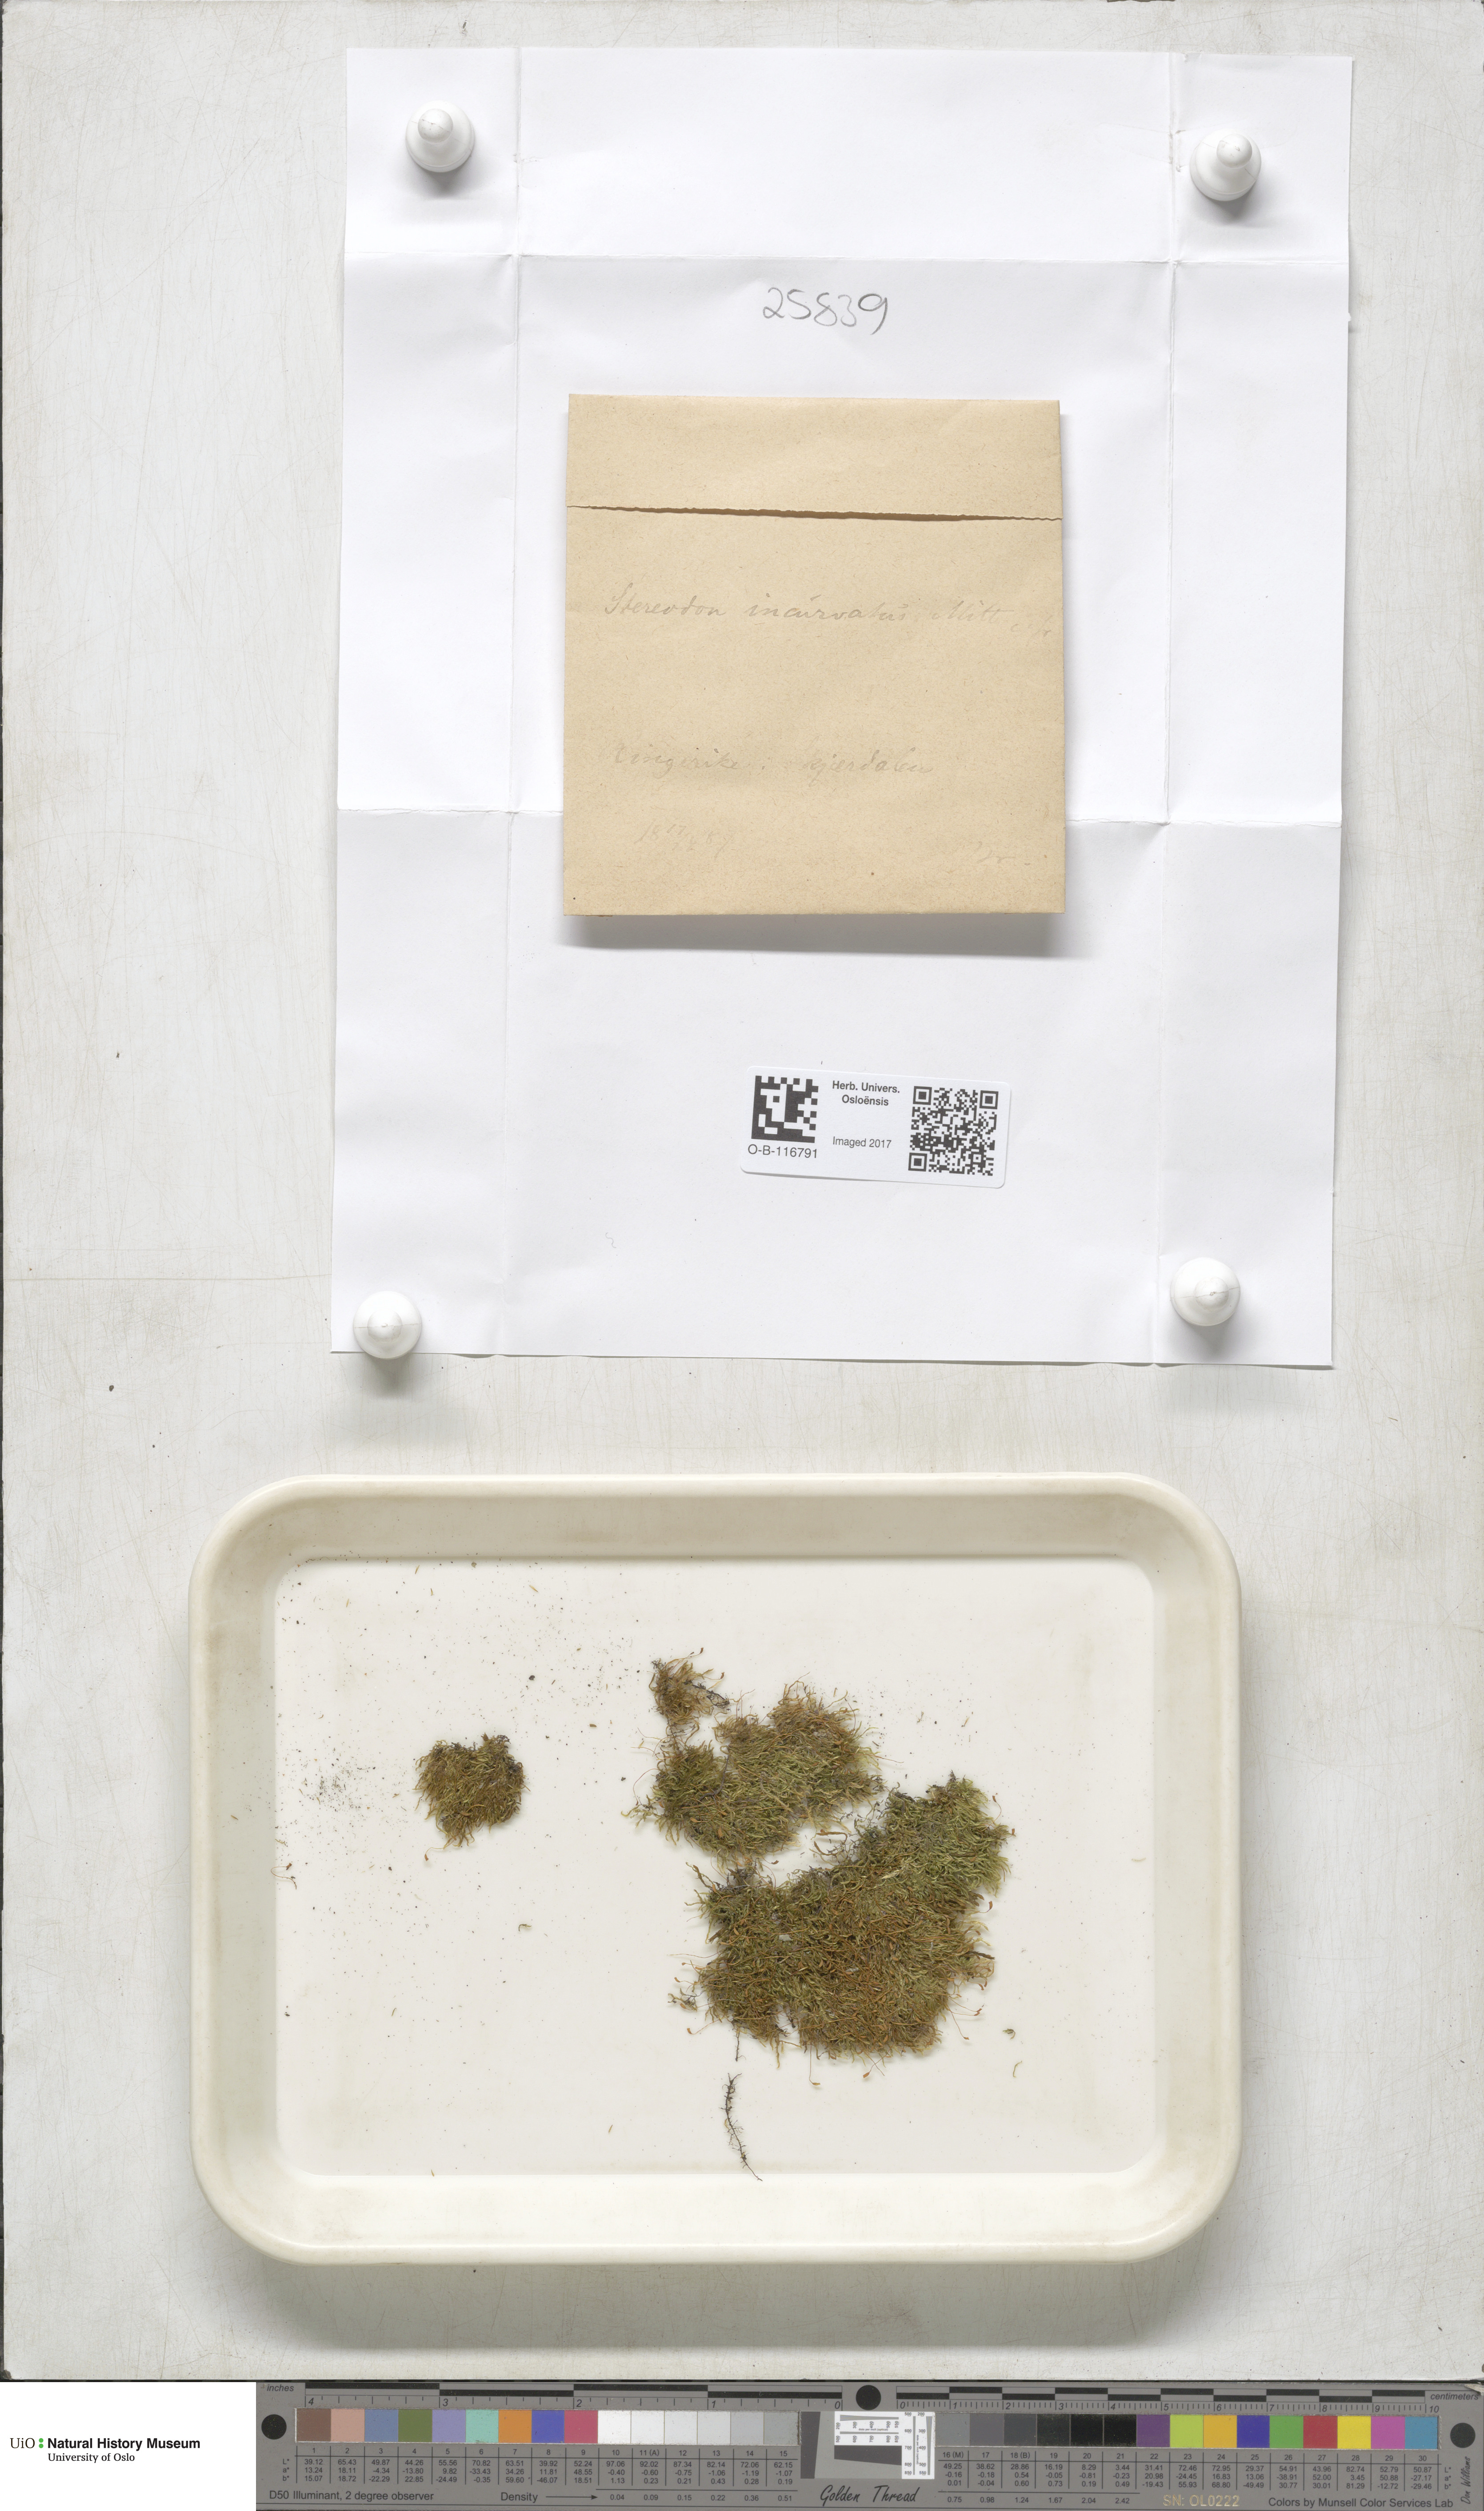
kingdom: Plantae
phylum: Bryophyta
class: Bryopsida
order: Hypnales
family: Pylaisiaceae
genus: Homomallium
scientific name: Homomallium incurvatum
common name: Incurved feather-moss
